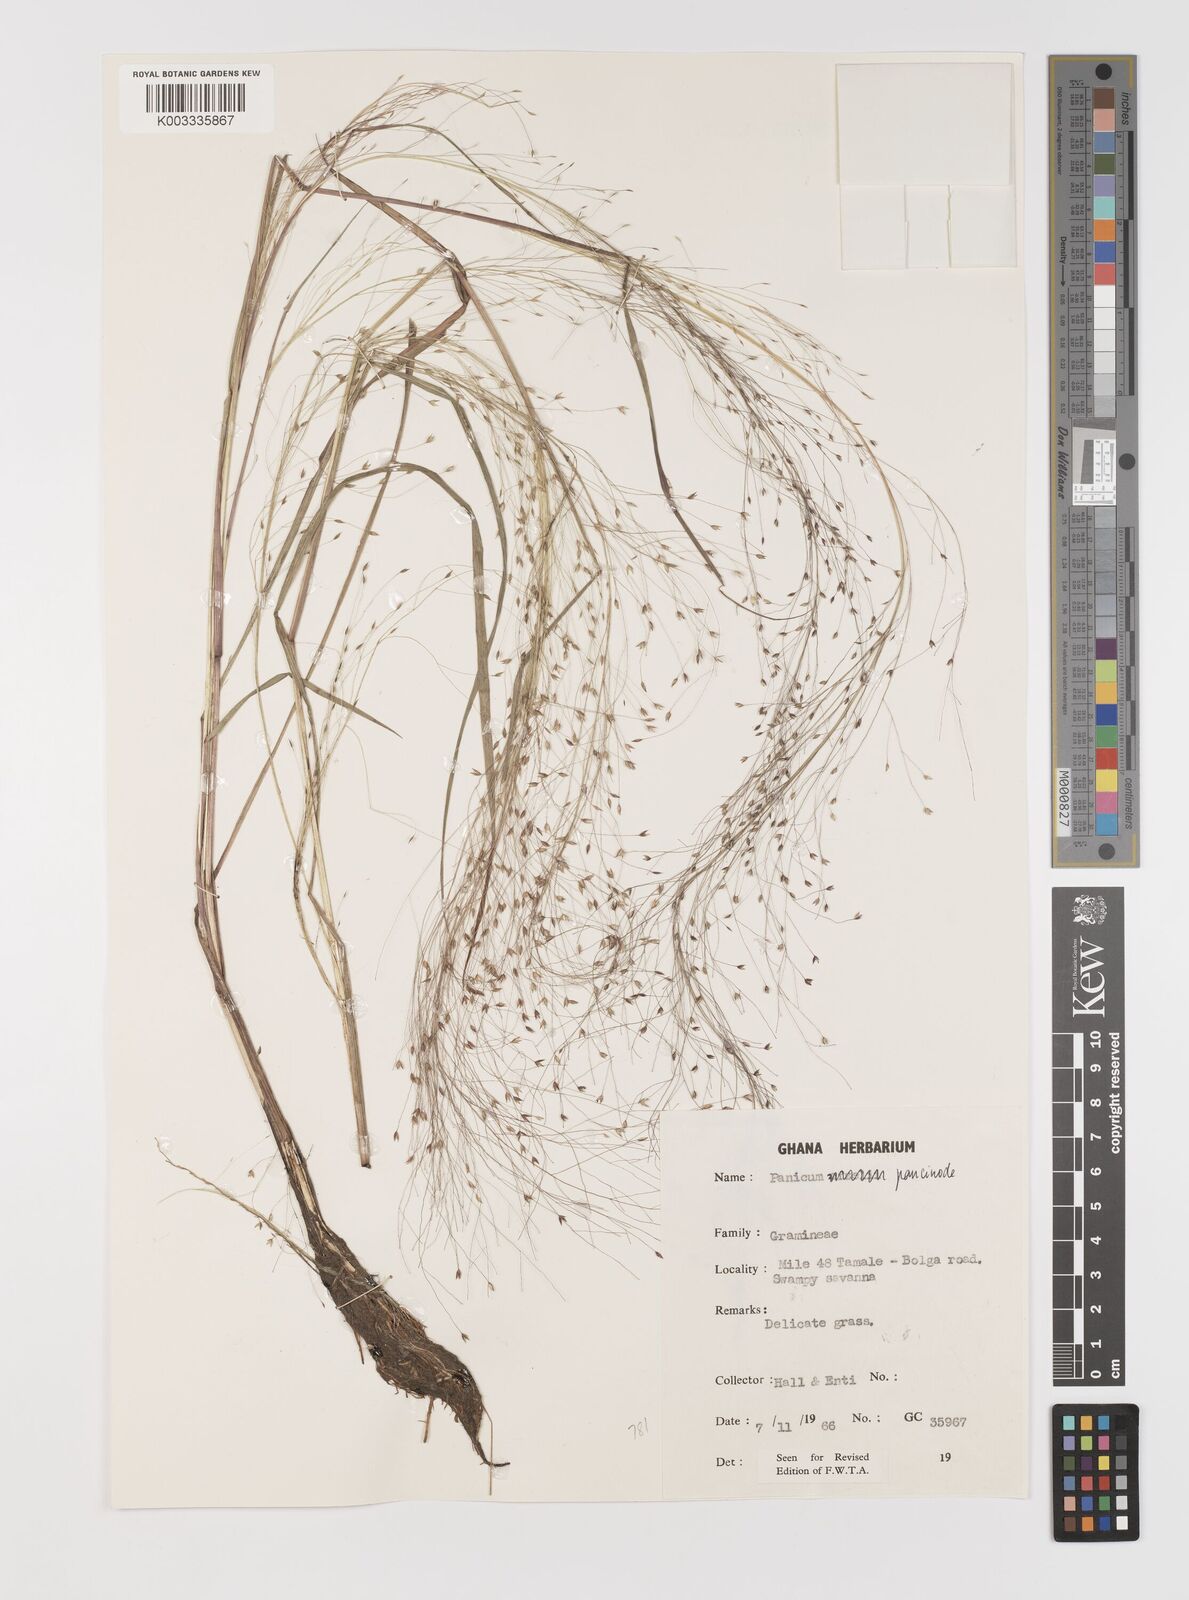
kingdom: Plantae
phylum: Tracheophyta
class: Liliopsida
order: Poales
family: Poaceae
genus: Panicum
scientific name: Panicum paucinode
